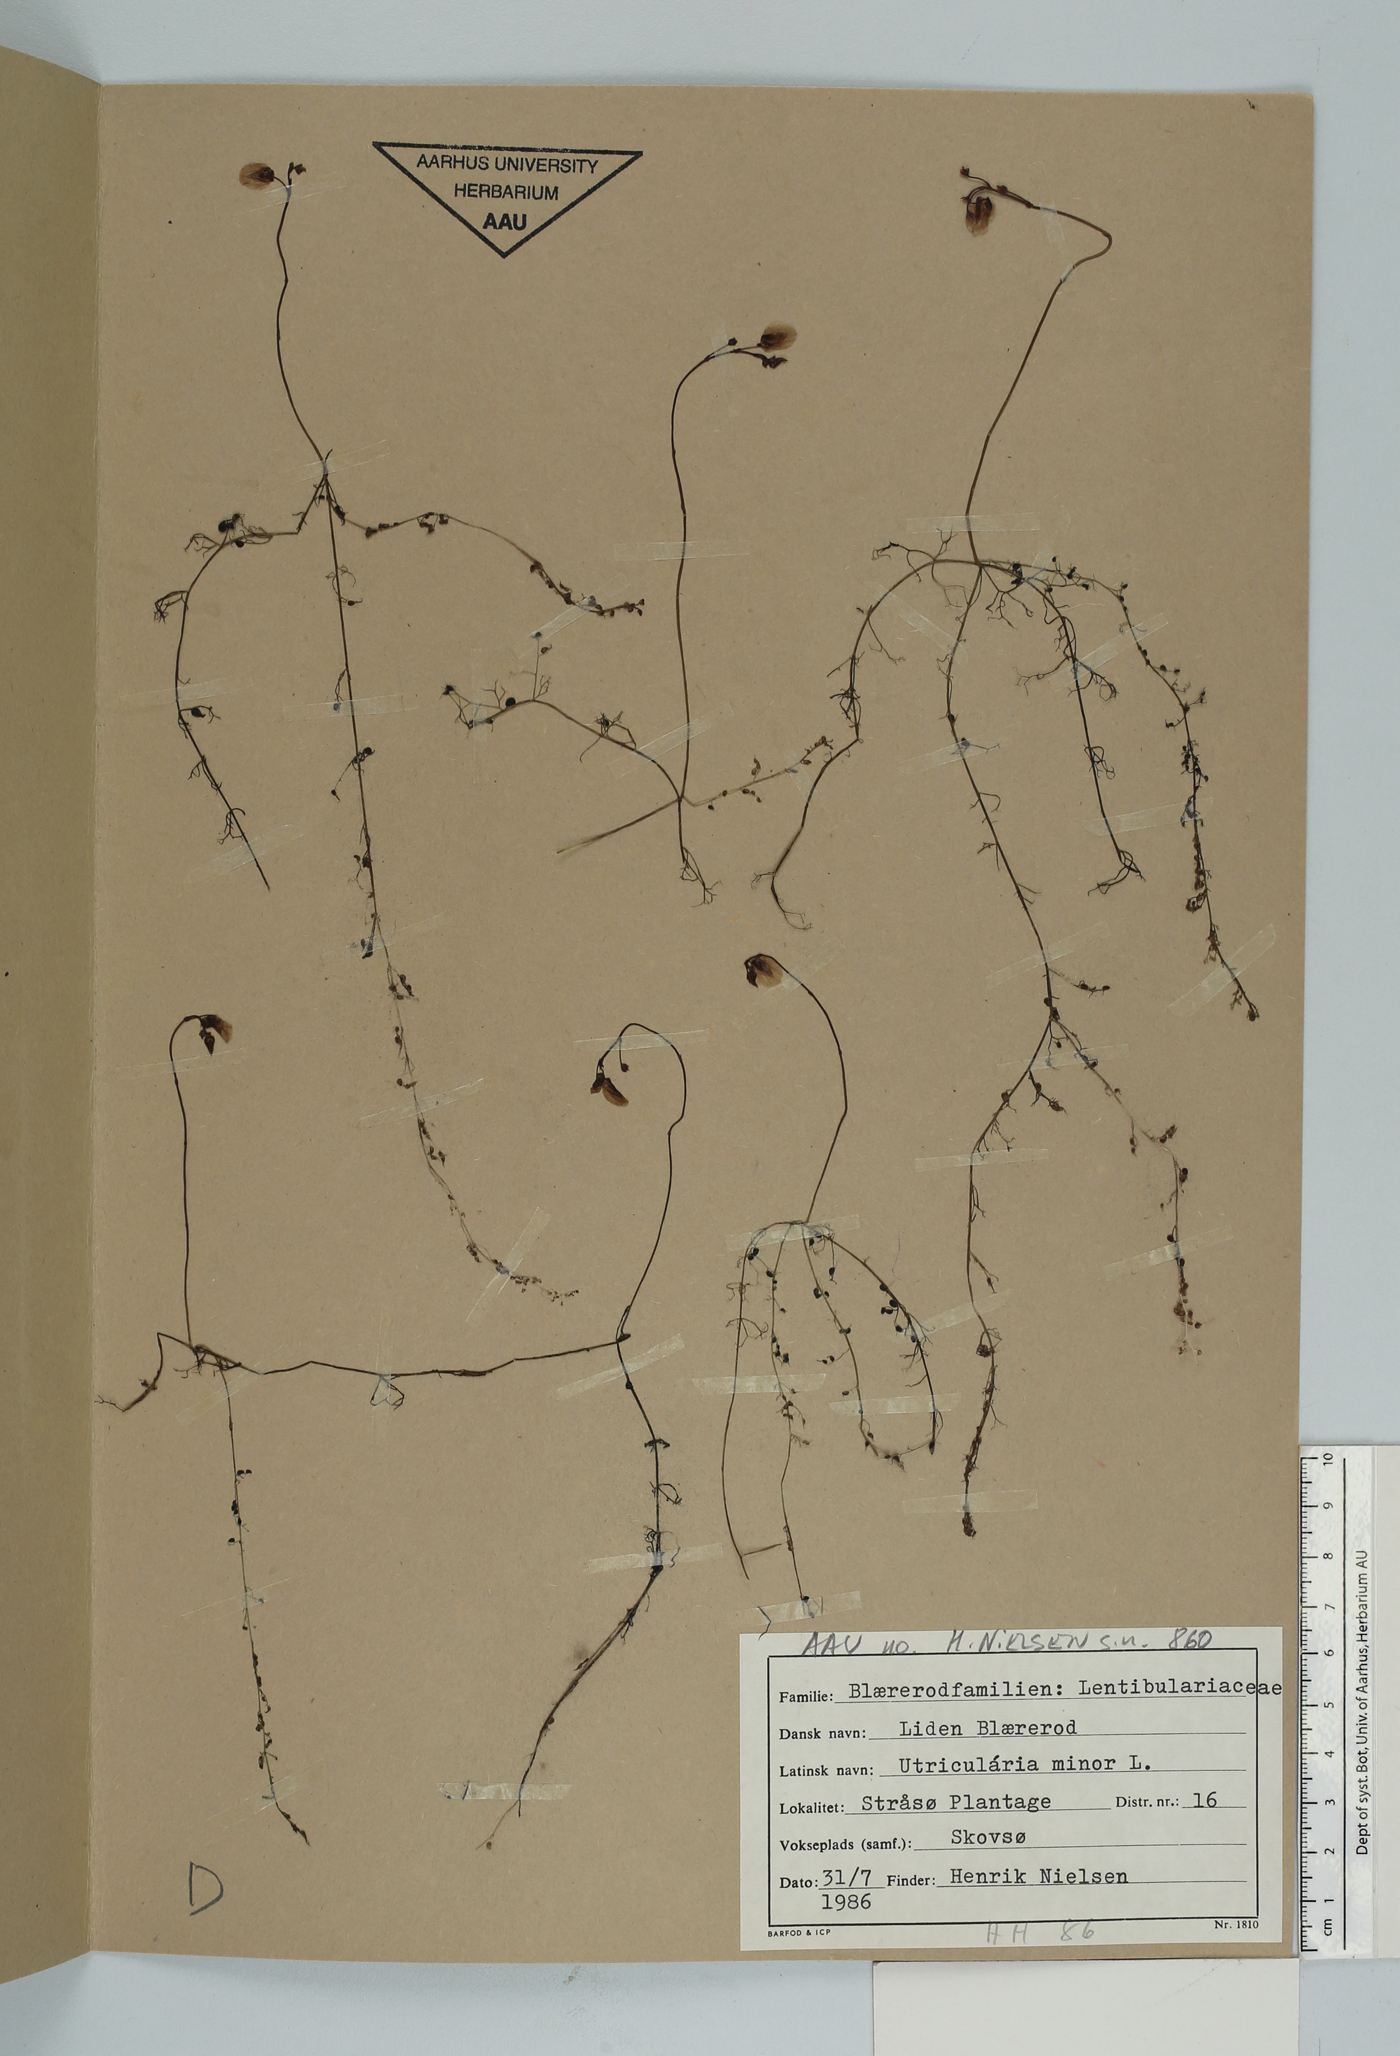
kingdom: Plantae
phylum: Tracheophyta
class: Magnoliopsida
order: Lamiales
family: Lentibulariaceae
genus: Utricularia
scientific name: Utricularia minor
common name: Lesser bladderwort
